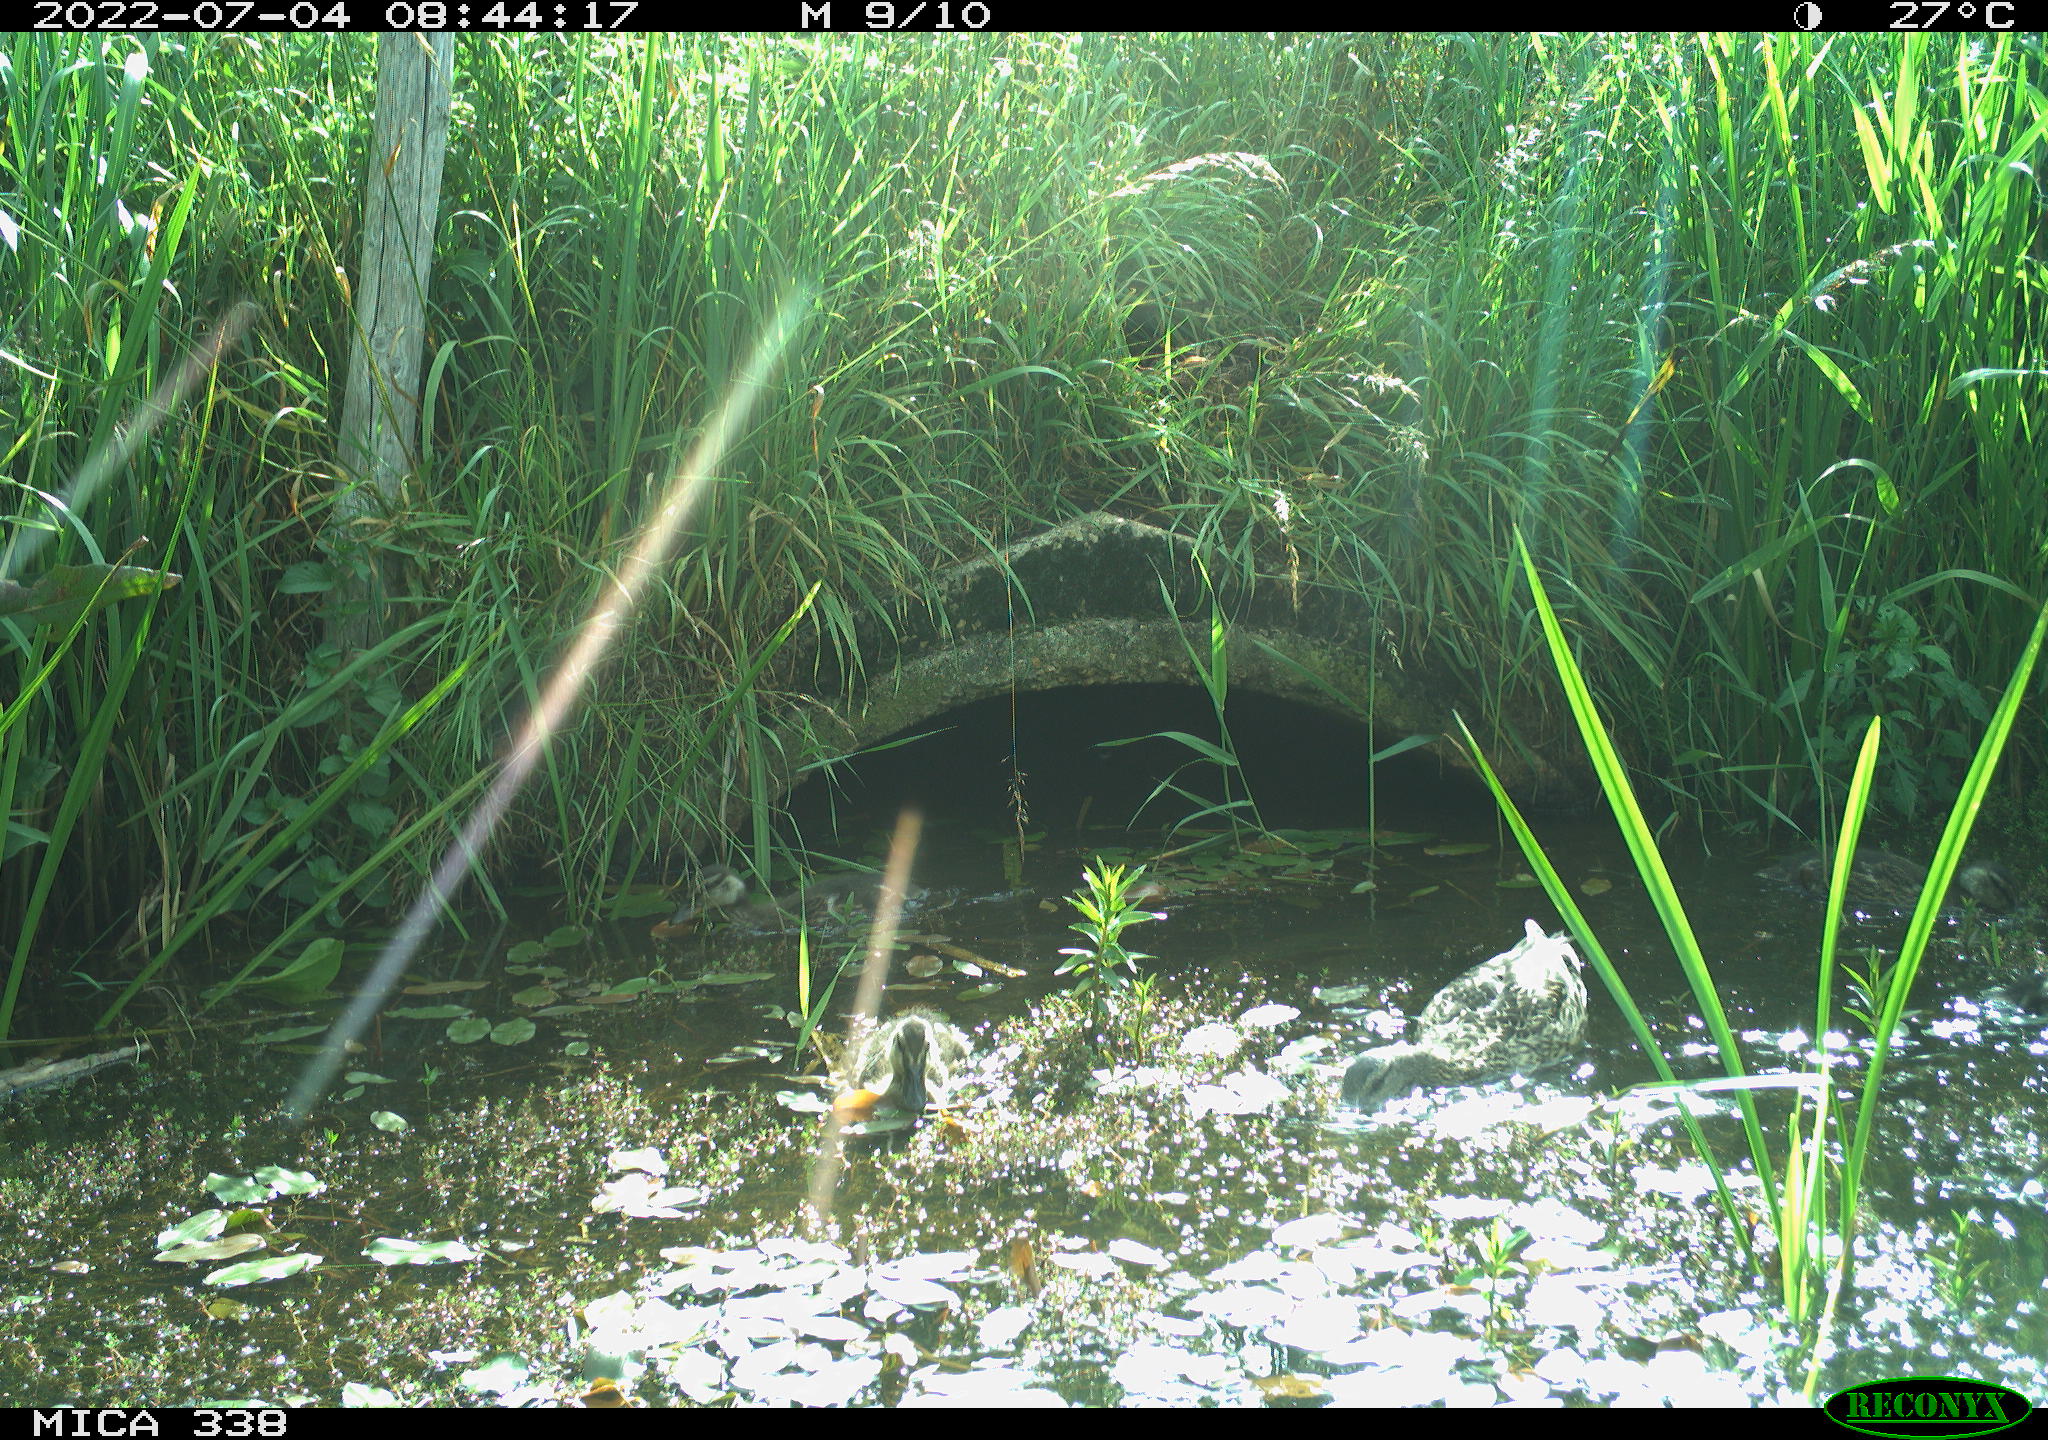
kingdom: Animalia
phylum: Chordata
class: Aves
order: Anseriformes
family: Anatidae
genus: Anas
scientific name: Anas platyrhynchos
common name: Mallard
